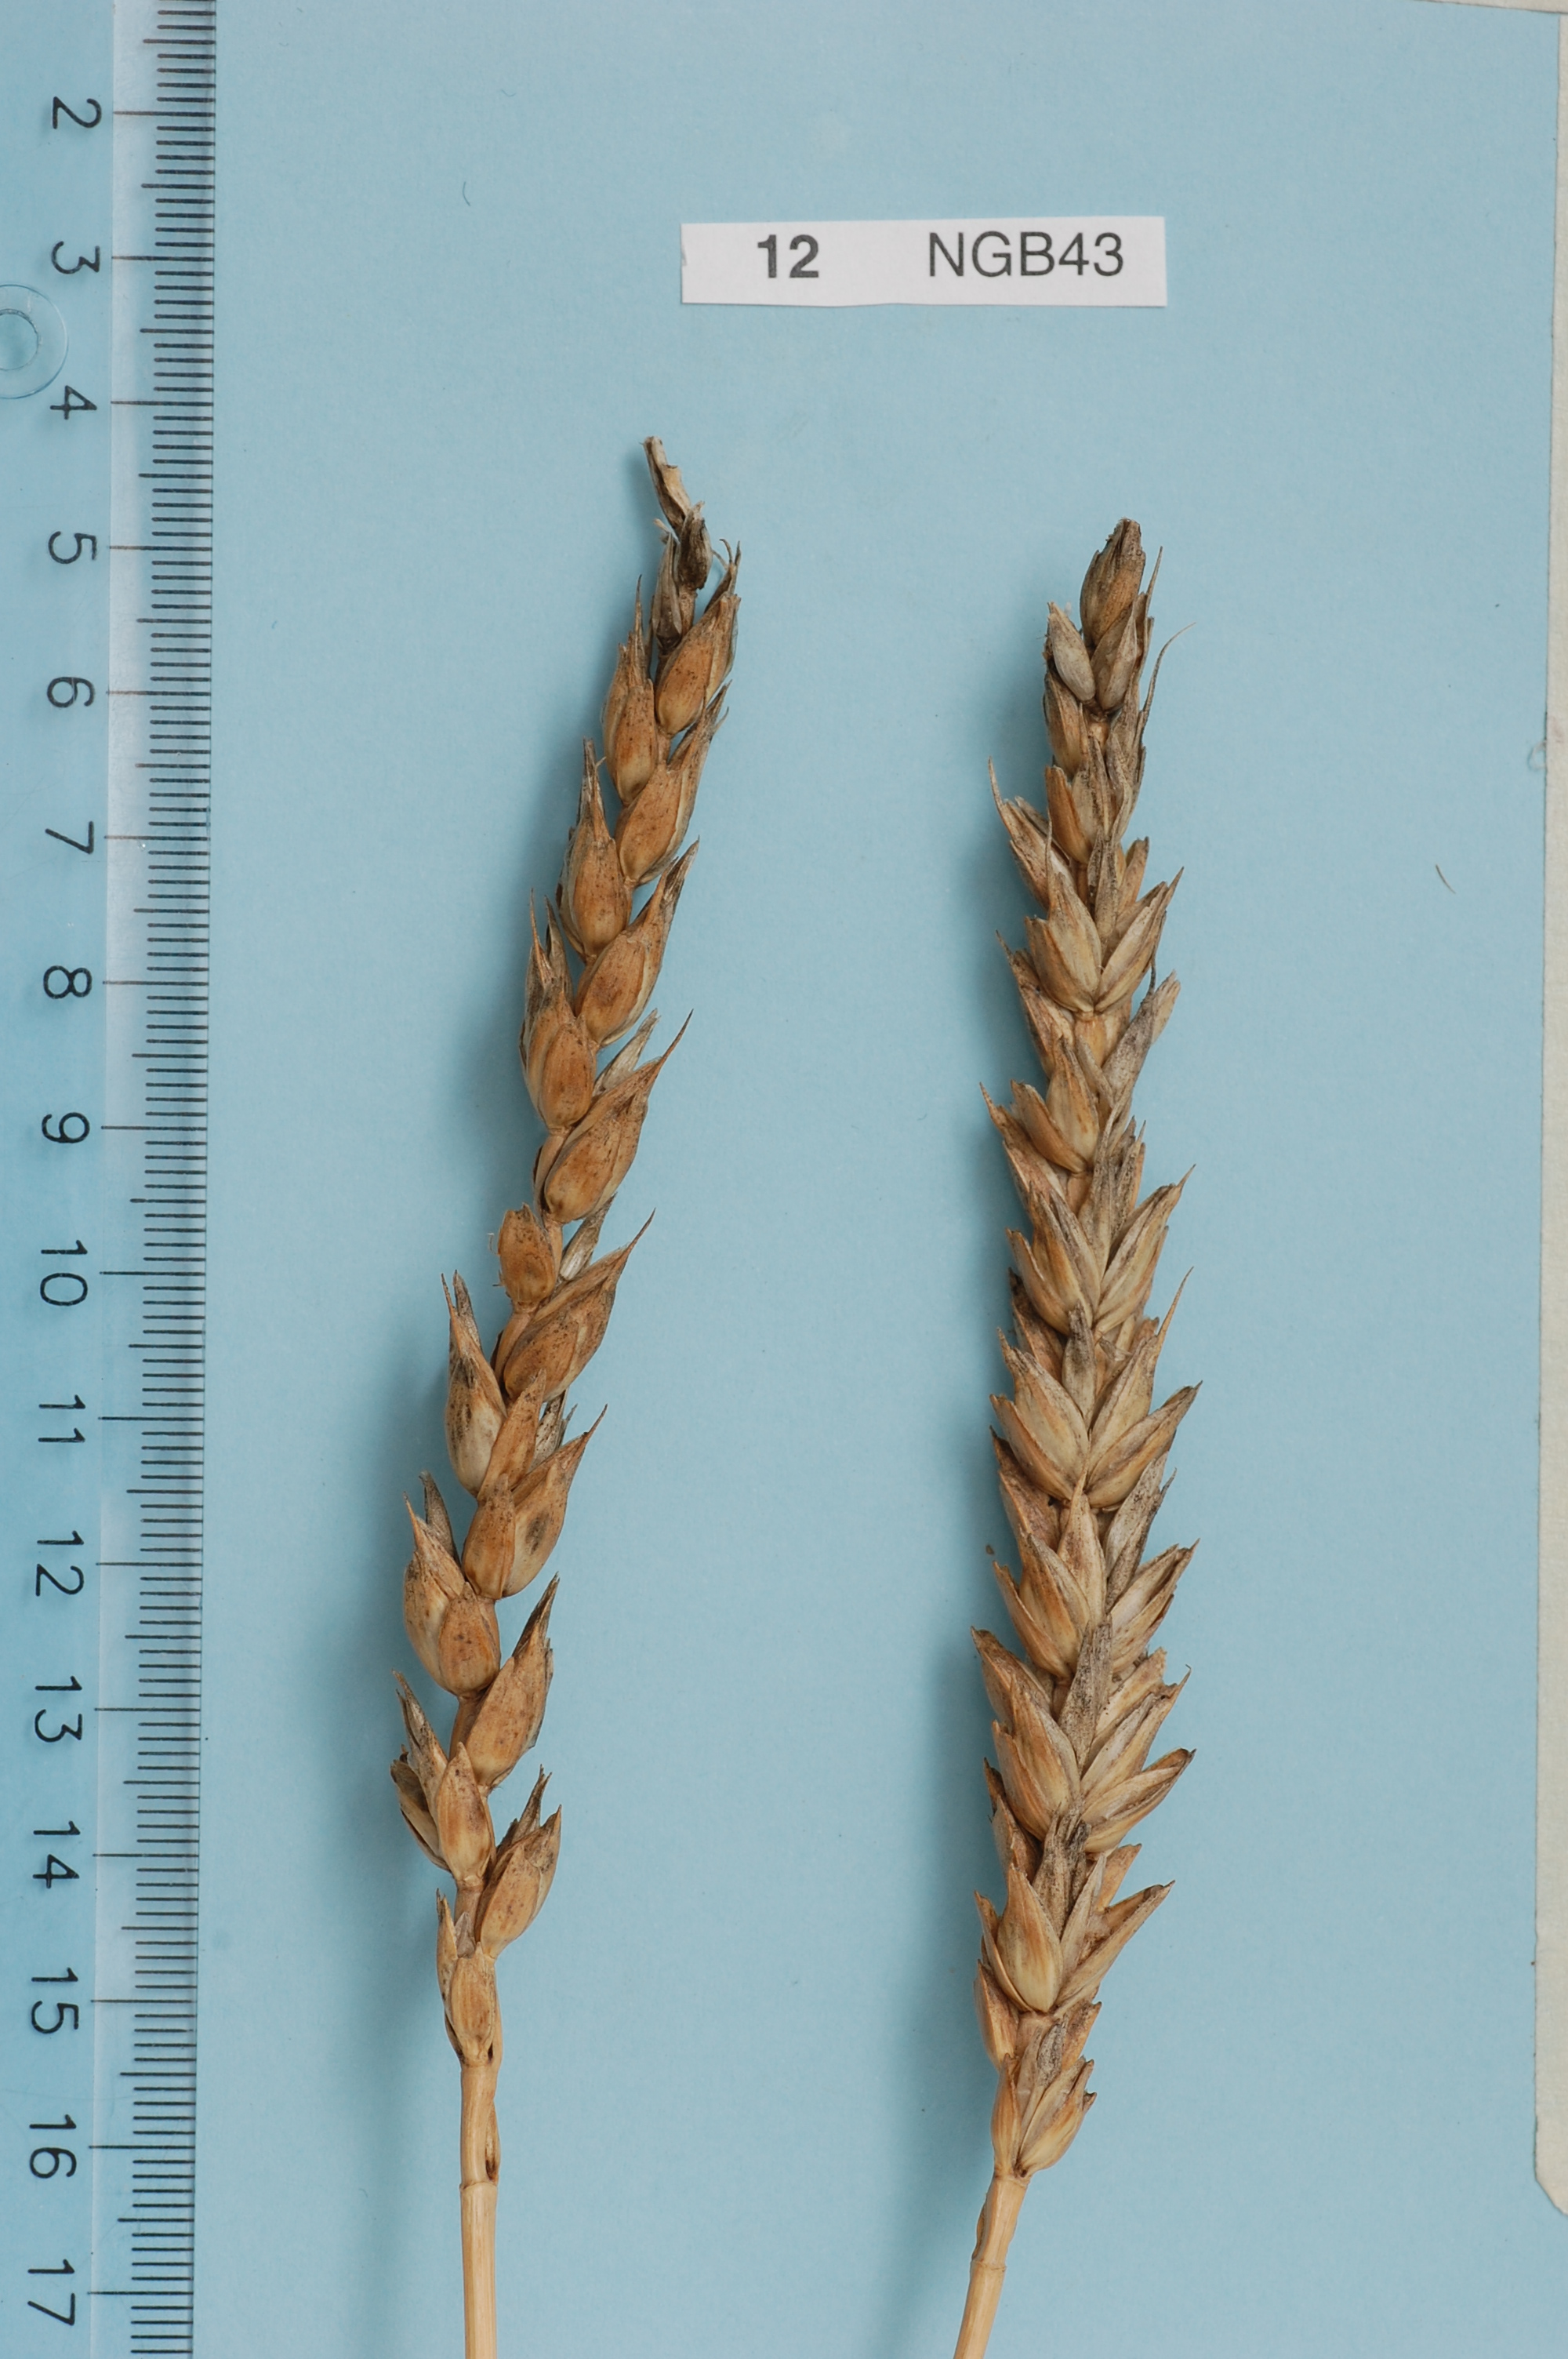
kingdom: Plantae
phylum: Tracheophyta
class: Liliopsida
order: Poales
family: Poaceae
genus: Triticum
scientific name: Triticum aestivum
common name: Common wheat
